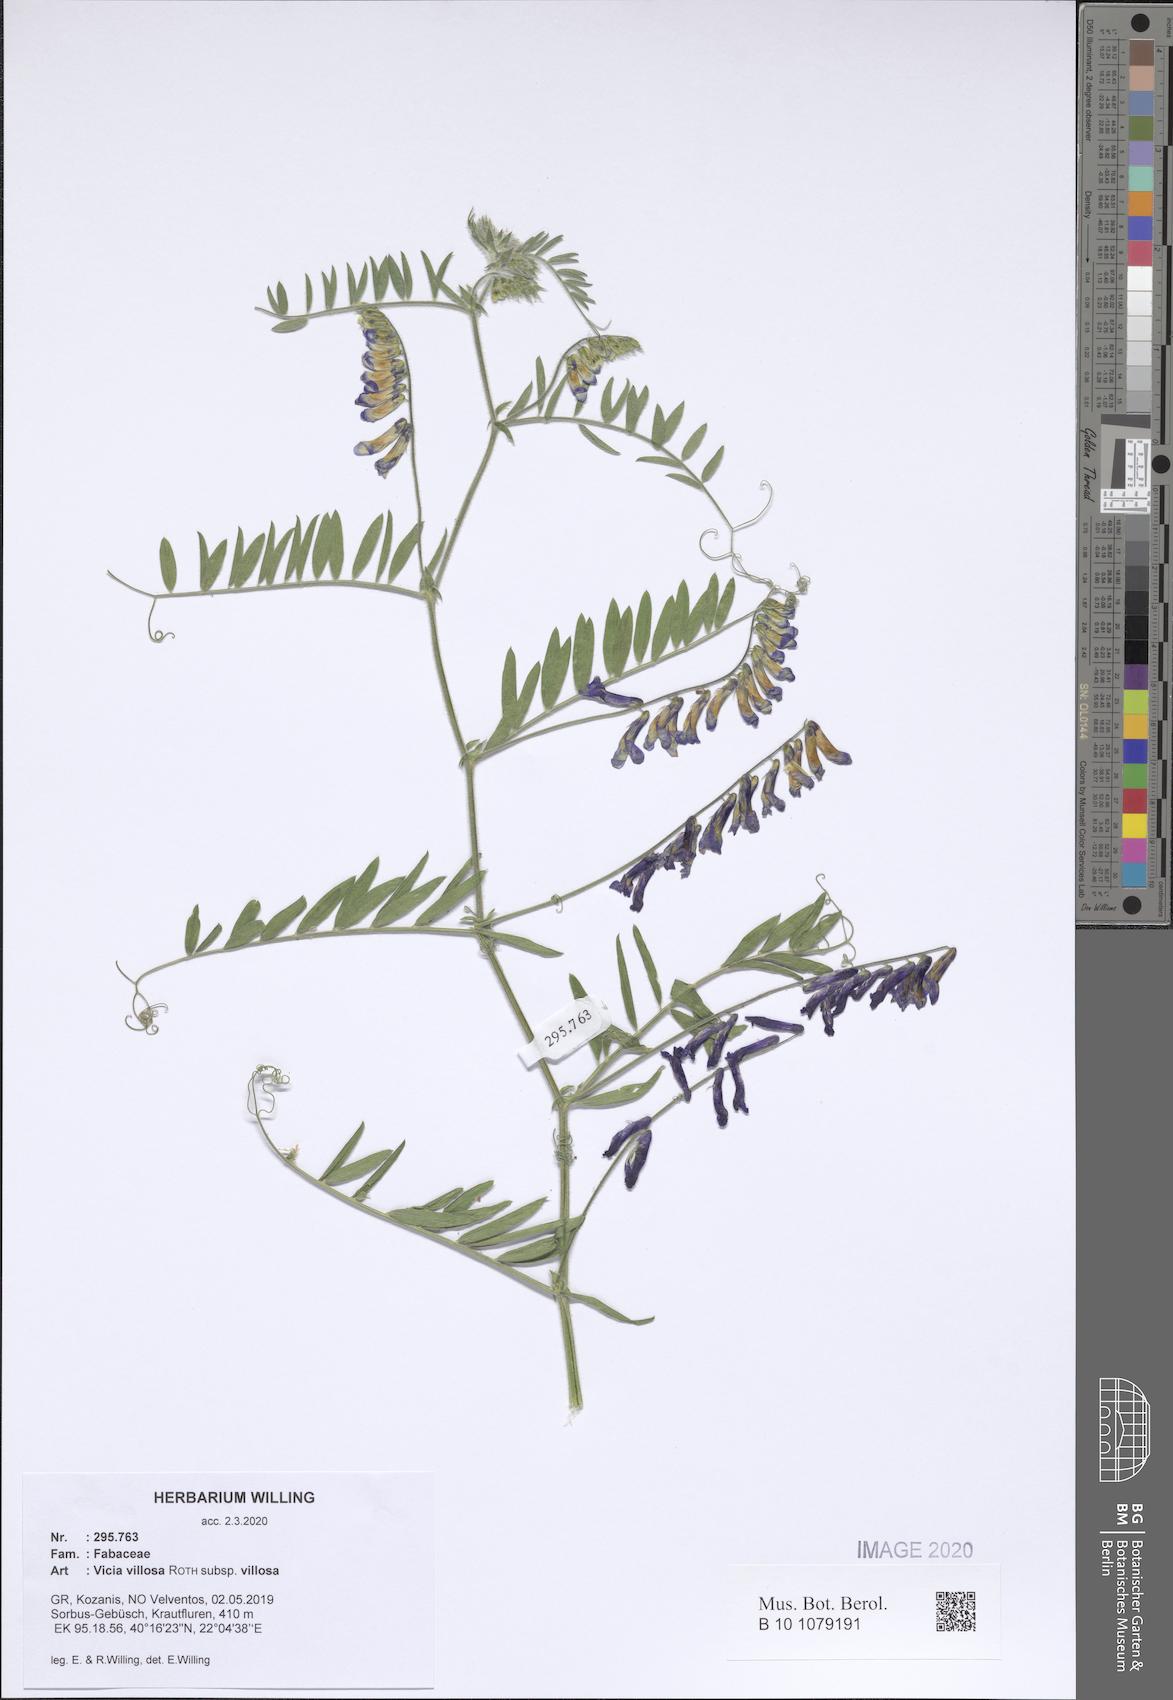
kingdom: Plantae
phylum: Tracheophyta
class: Magnoliopsida
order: Fabales
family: Fabaceae
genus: Vicia
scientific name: Vicia villosa
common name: Fodder vetch
